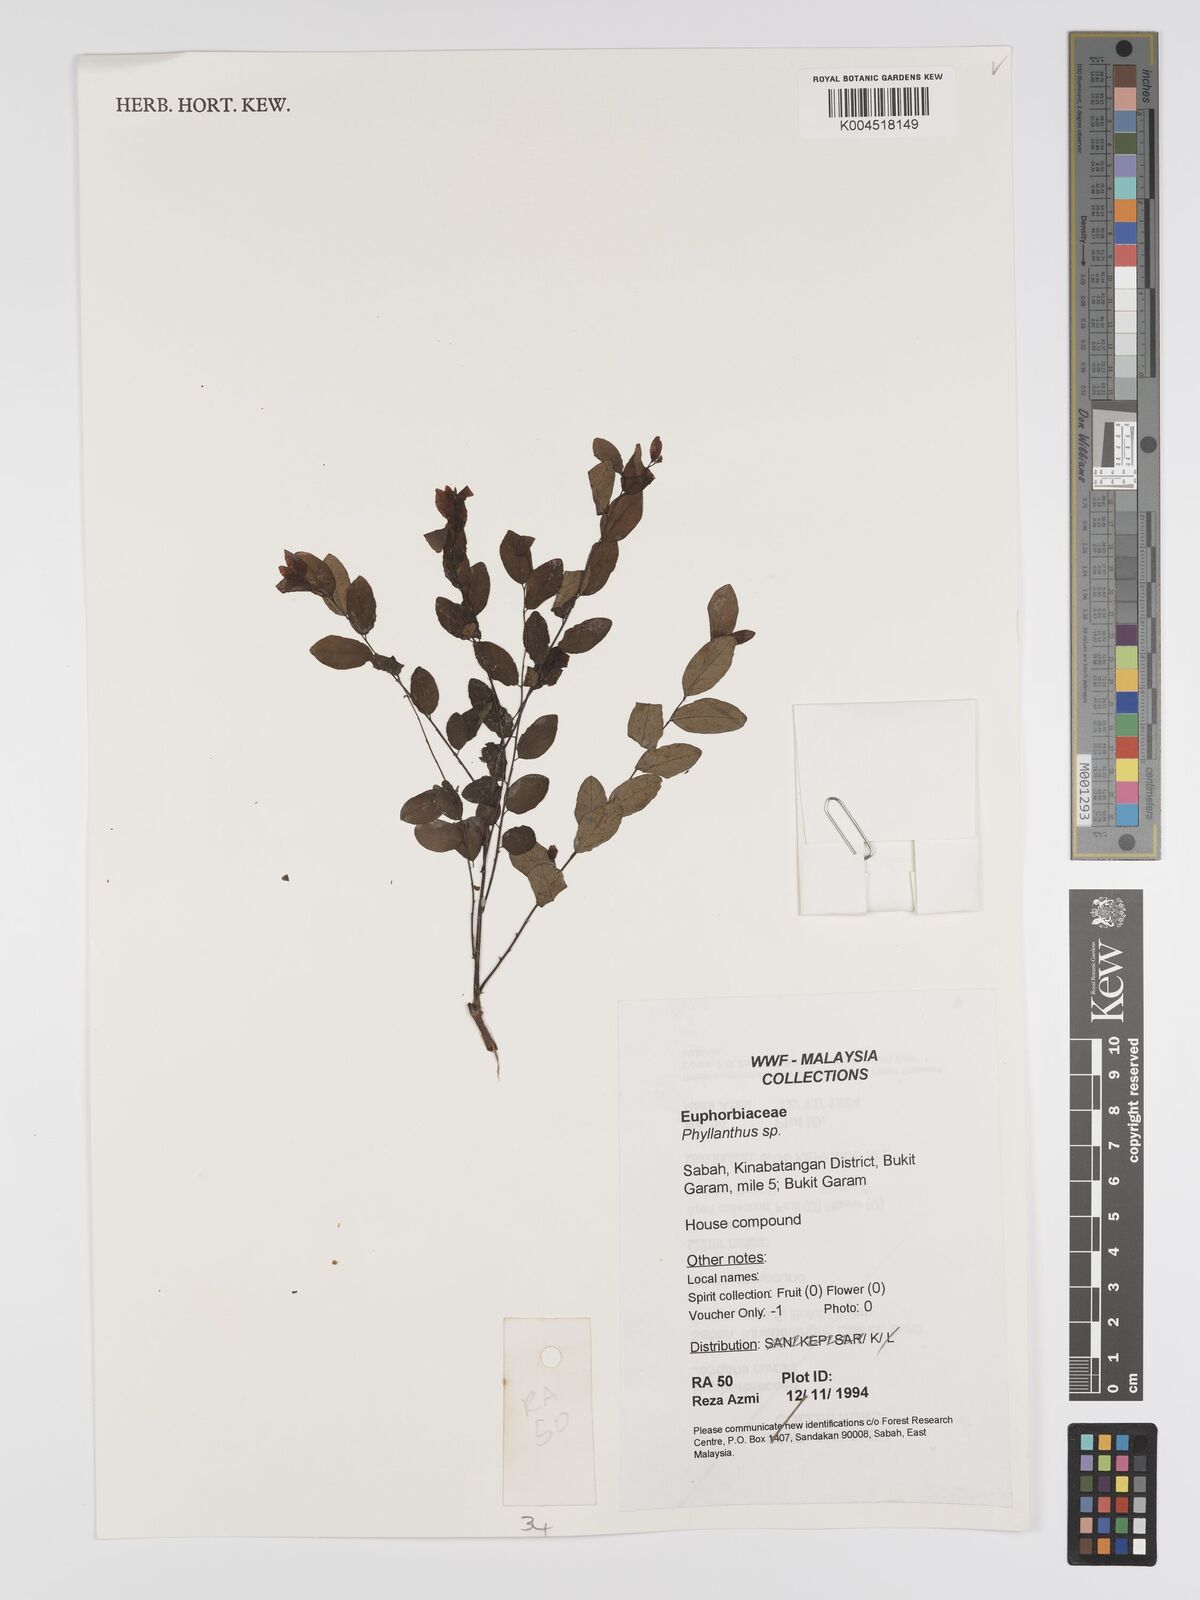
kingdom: Plantae
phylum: Tracheophyta
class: Magnoliopsida
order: Malpighiales
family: Phyllanthaceae
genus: Phyllanthus
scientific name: Phyllanthus
